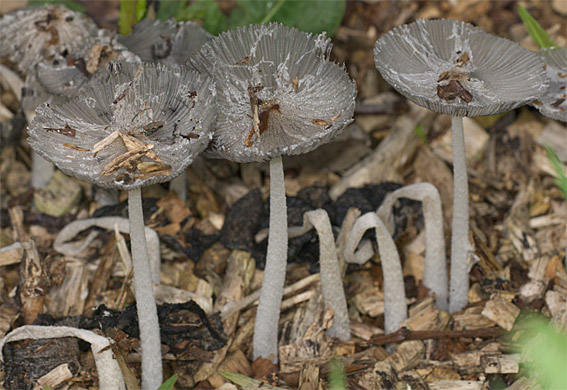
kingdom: Fungi
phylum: Basidiomycota
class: Agaricomycetes
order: Agaricales
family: Psathyrellaceae
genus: Coprinopsis
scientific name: Coprinopsis lagopus
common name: dunstokket blækhat
